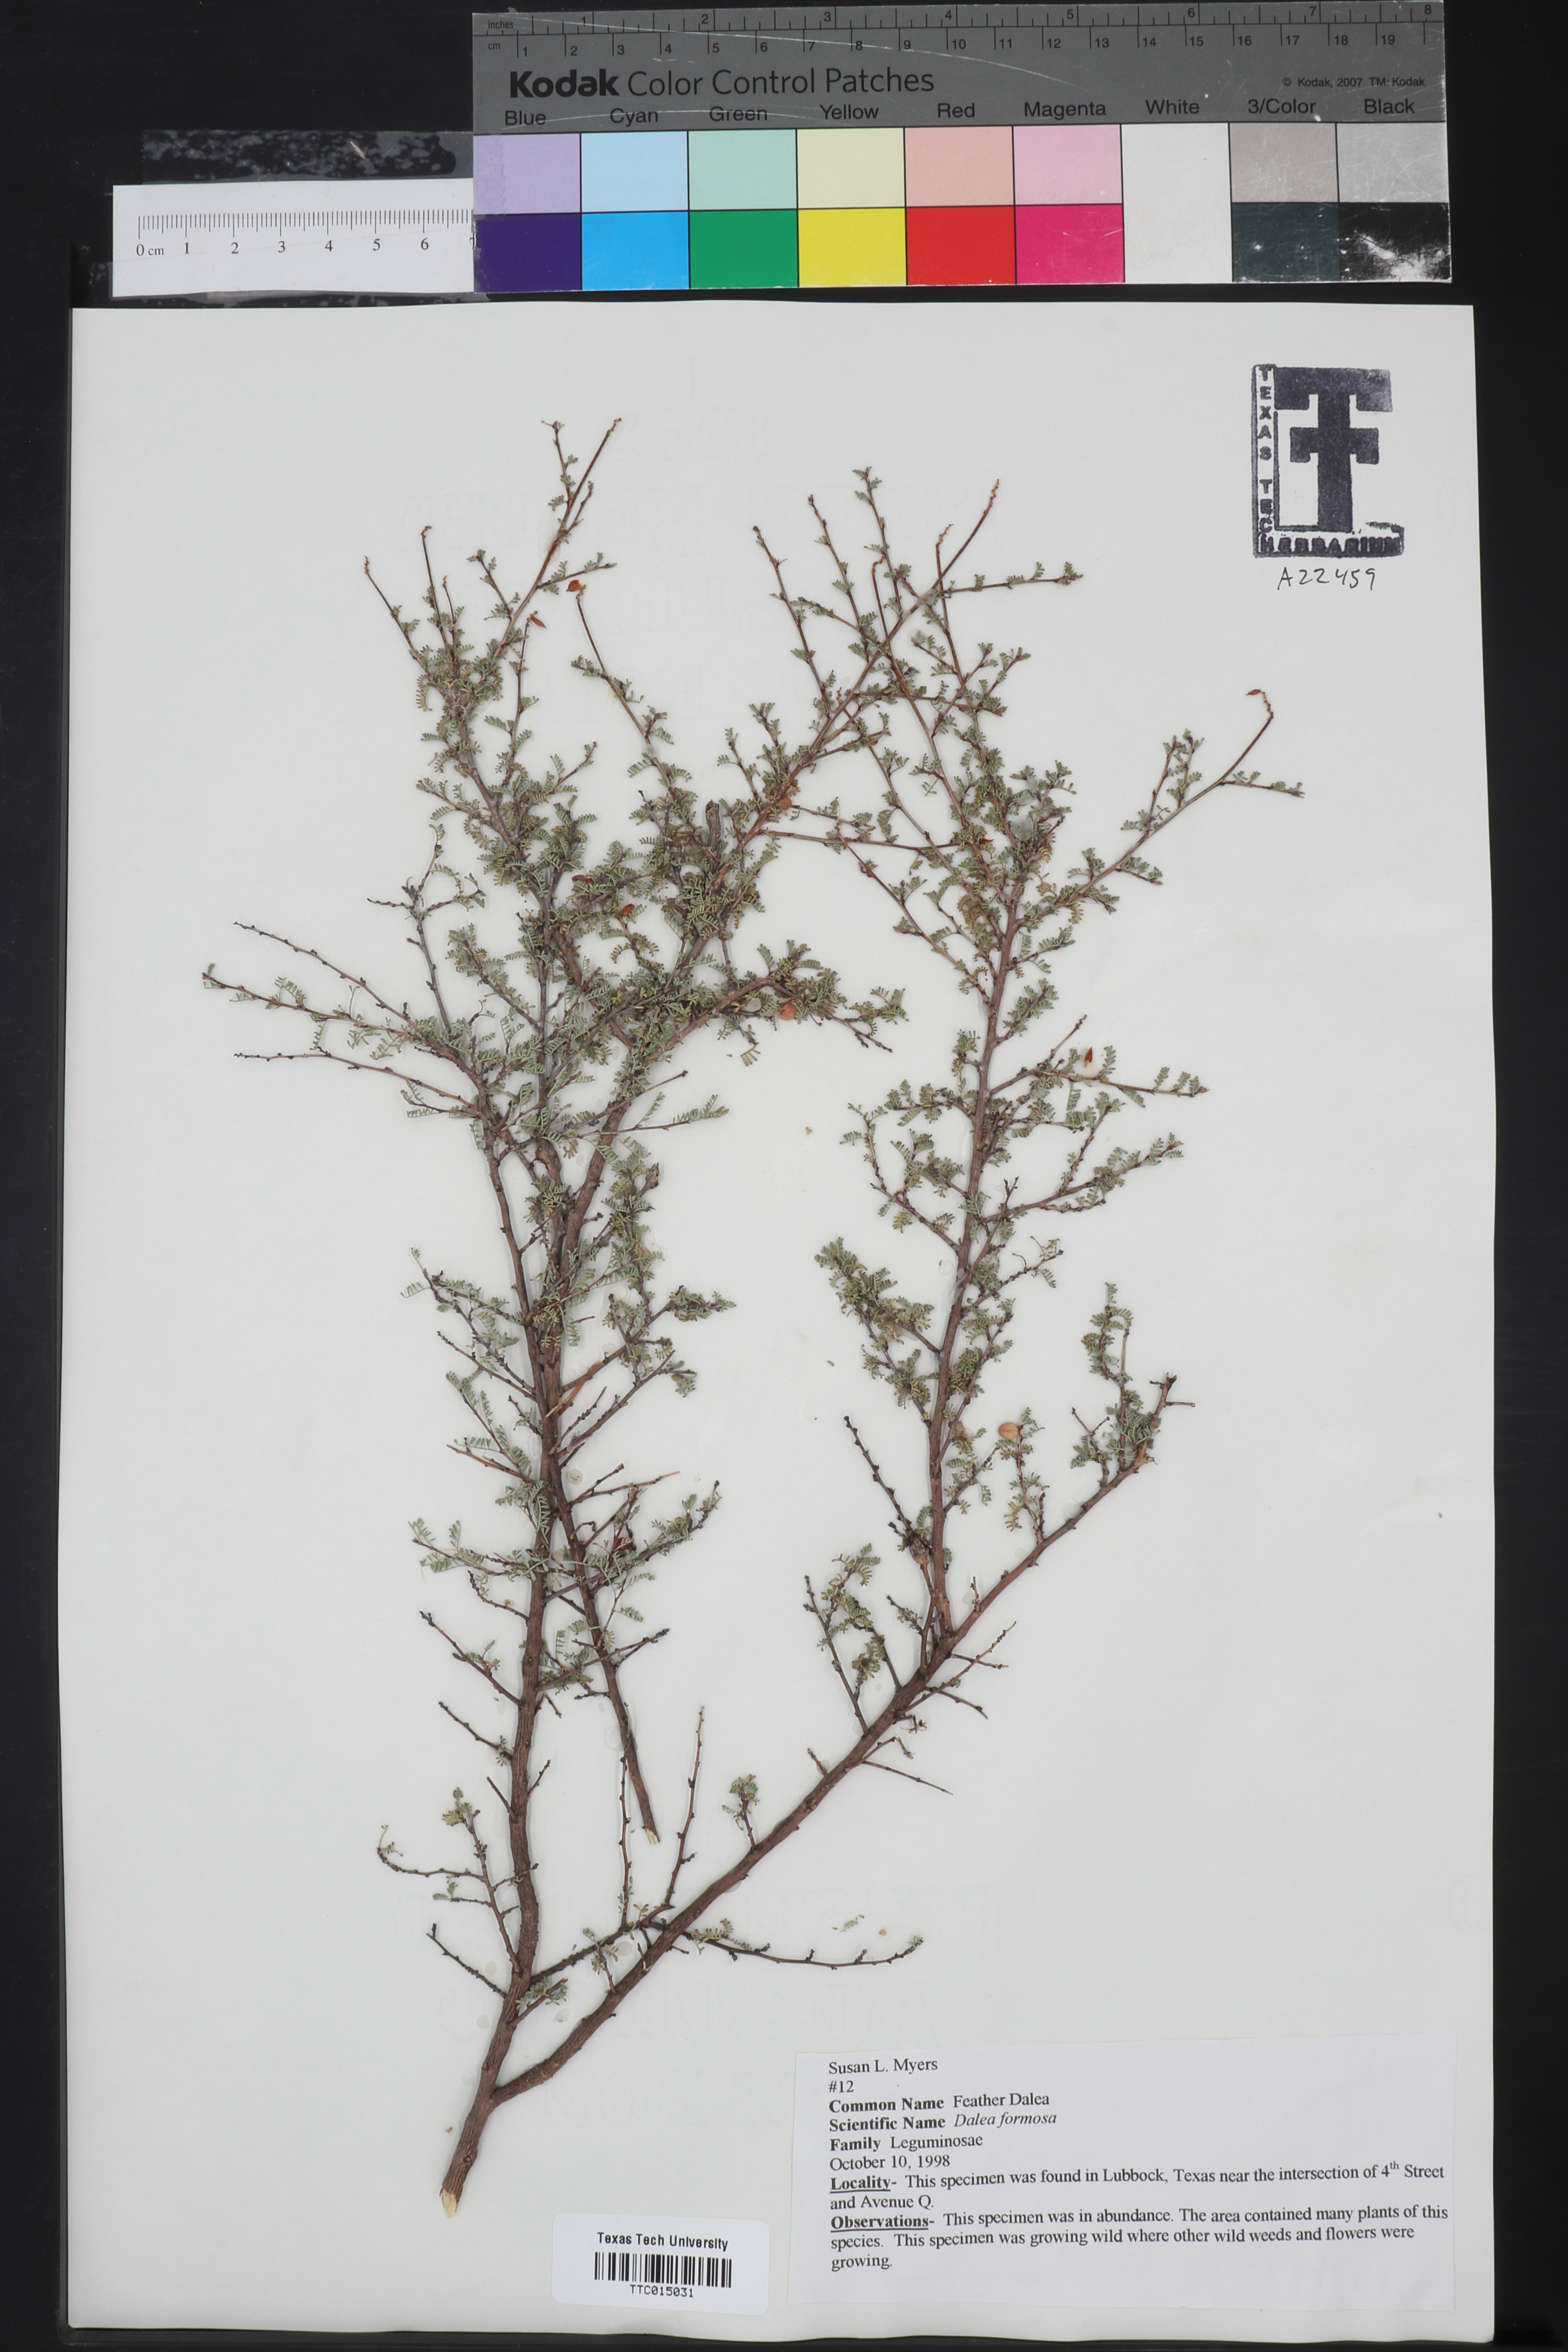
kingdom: Plantae
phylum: Tracheophyta
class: Magnoliopsida
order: Fabales
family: Fabaceae
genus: Dalea
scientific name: Dalea formosa
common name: Feather-plume dalea
